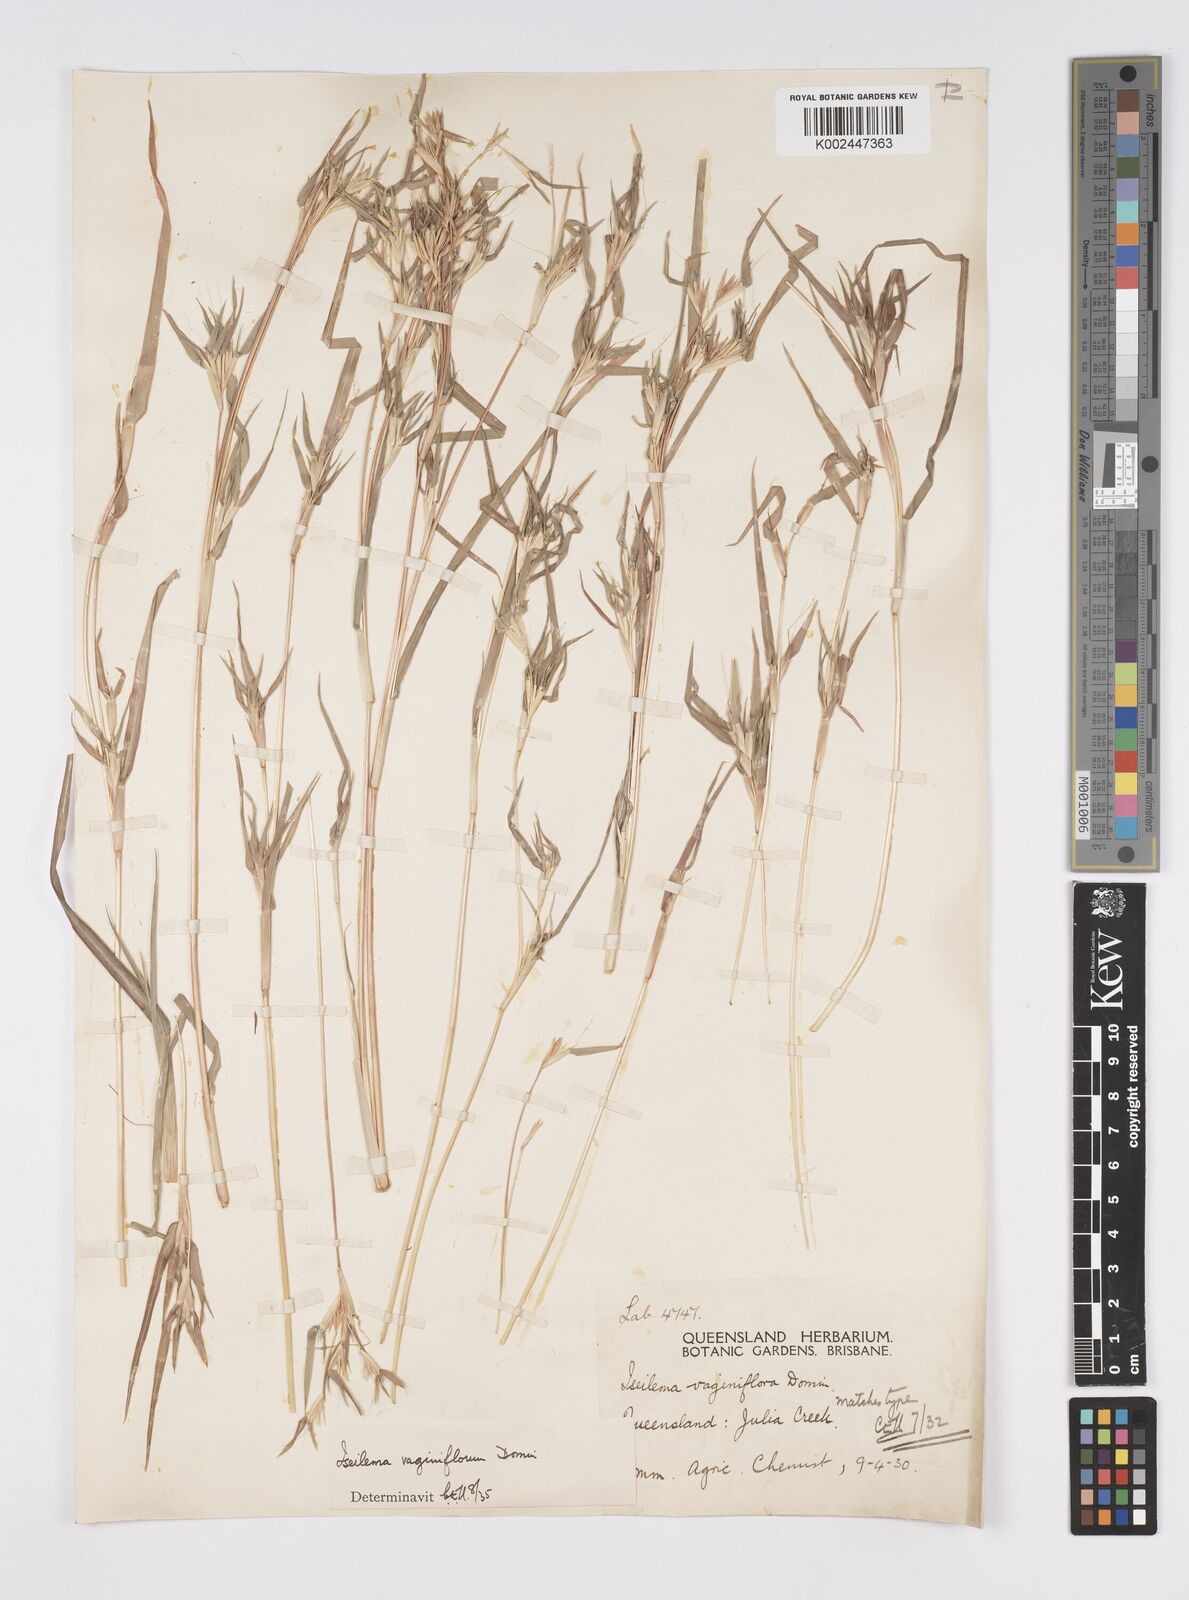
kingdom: Plantae
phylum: Tracheophyta
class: Liliopsida
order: Poales
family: Poaceae
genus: Iseilema
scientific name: Iseilema vaginiflorum
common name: Red flinders grass
